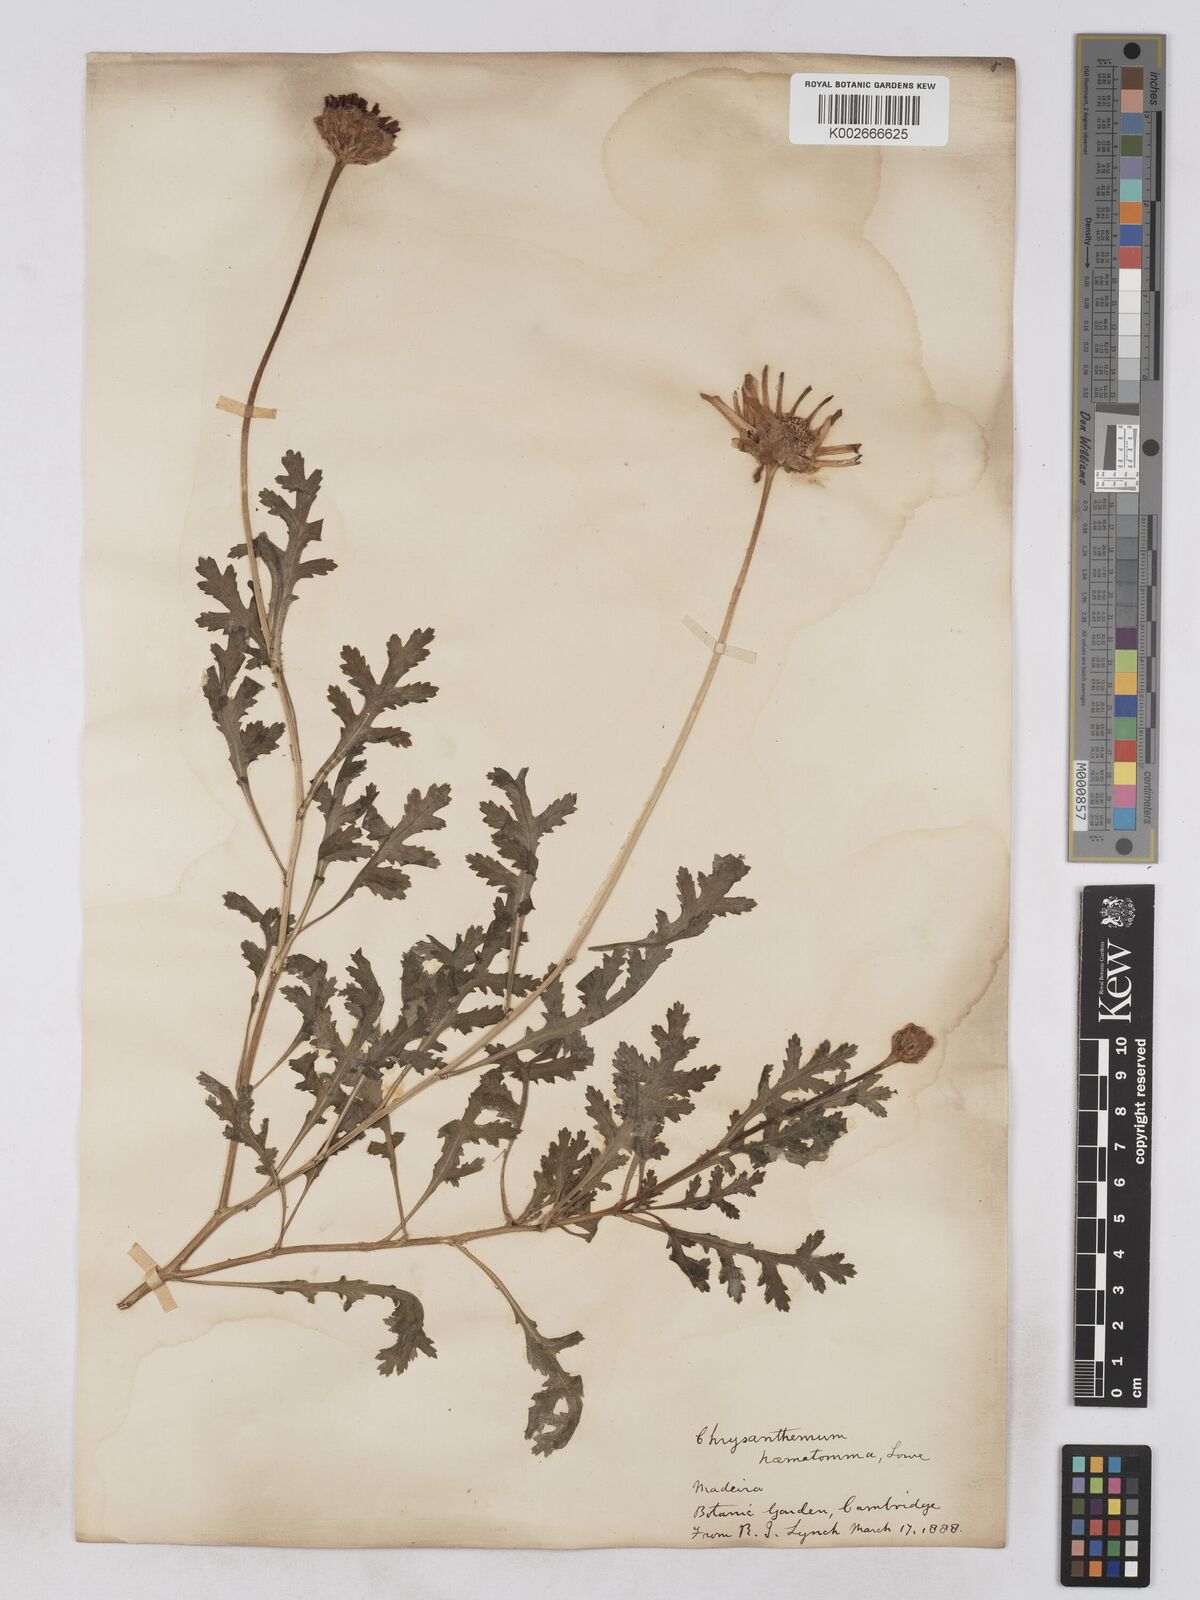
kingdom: Plantae
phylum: Tracheophyta
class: Magnoliopsida
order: Asterales
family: Asteraceae
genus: Argyranthemum
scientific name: Argyranthemum haematomma
